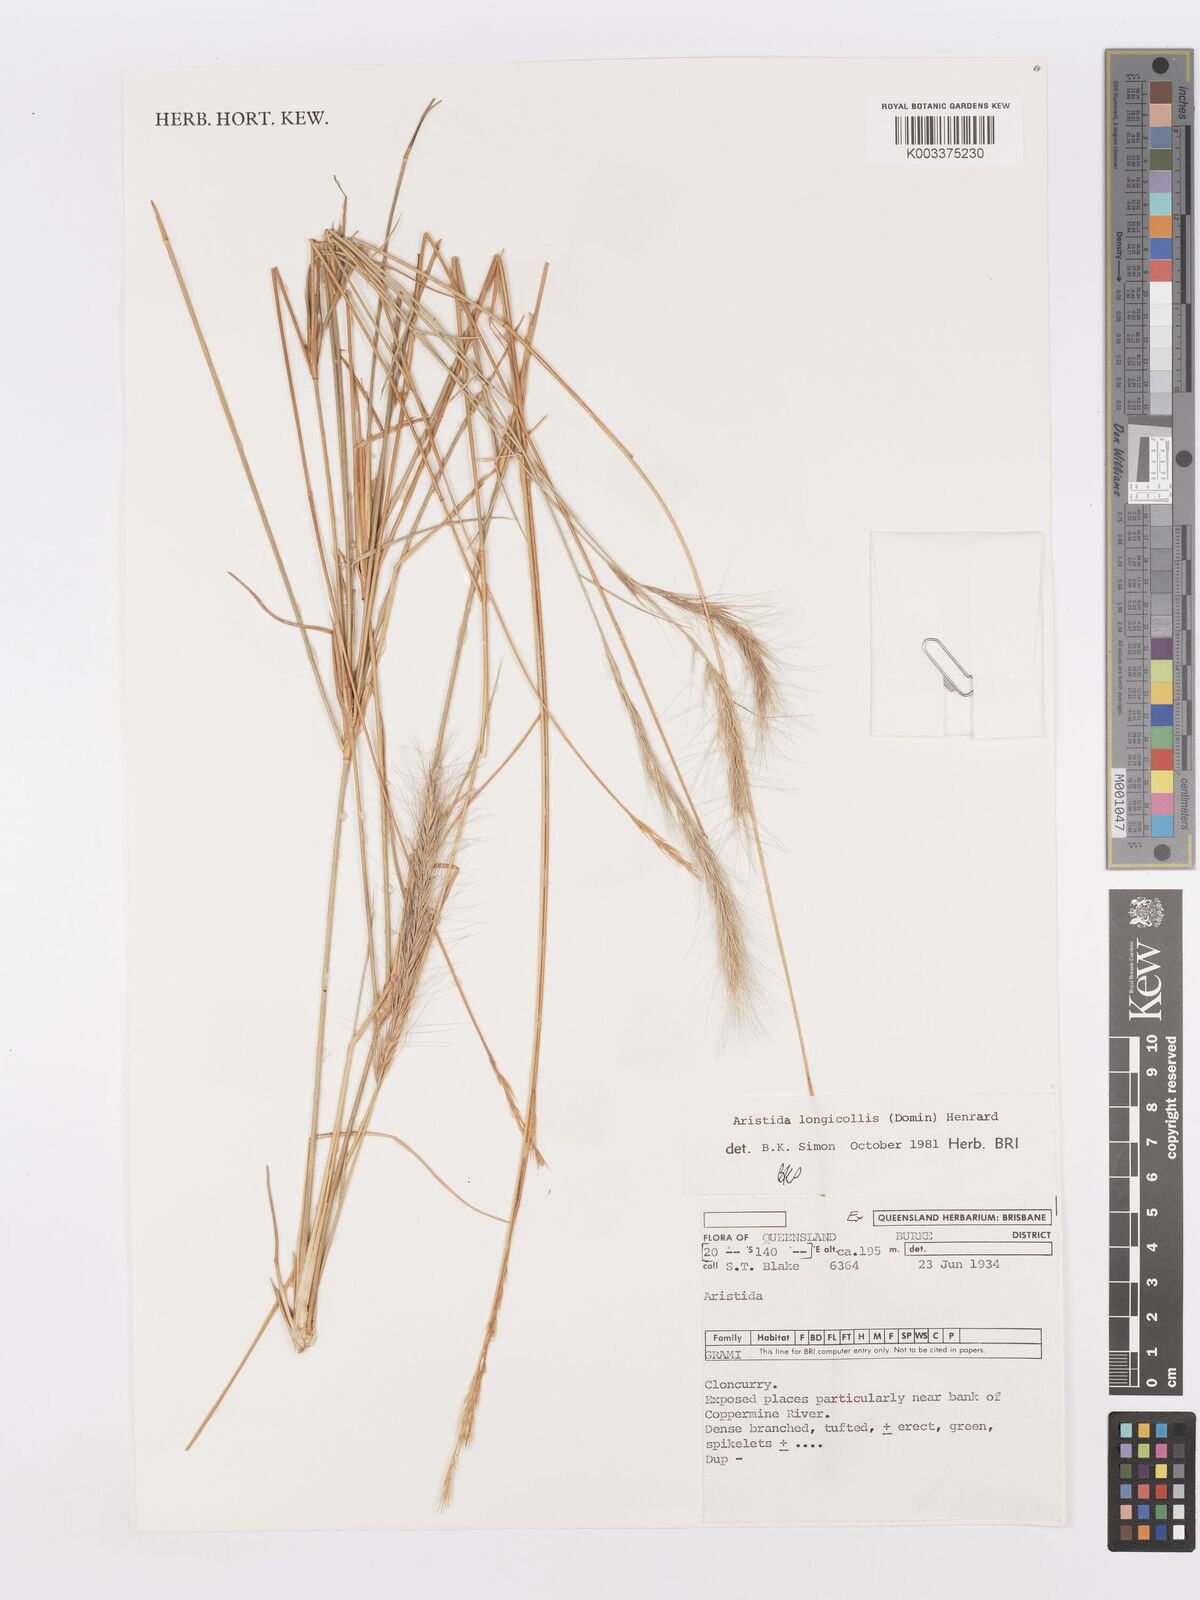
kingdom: Plantae
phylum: Tracheophyta
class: Liliopsida
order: Poales
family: Poaceae
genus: Aristida
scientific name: Aristida longicollis
